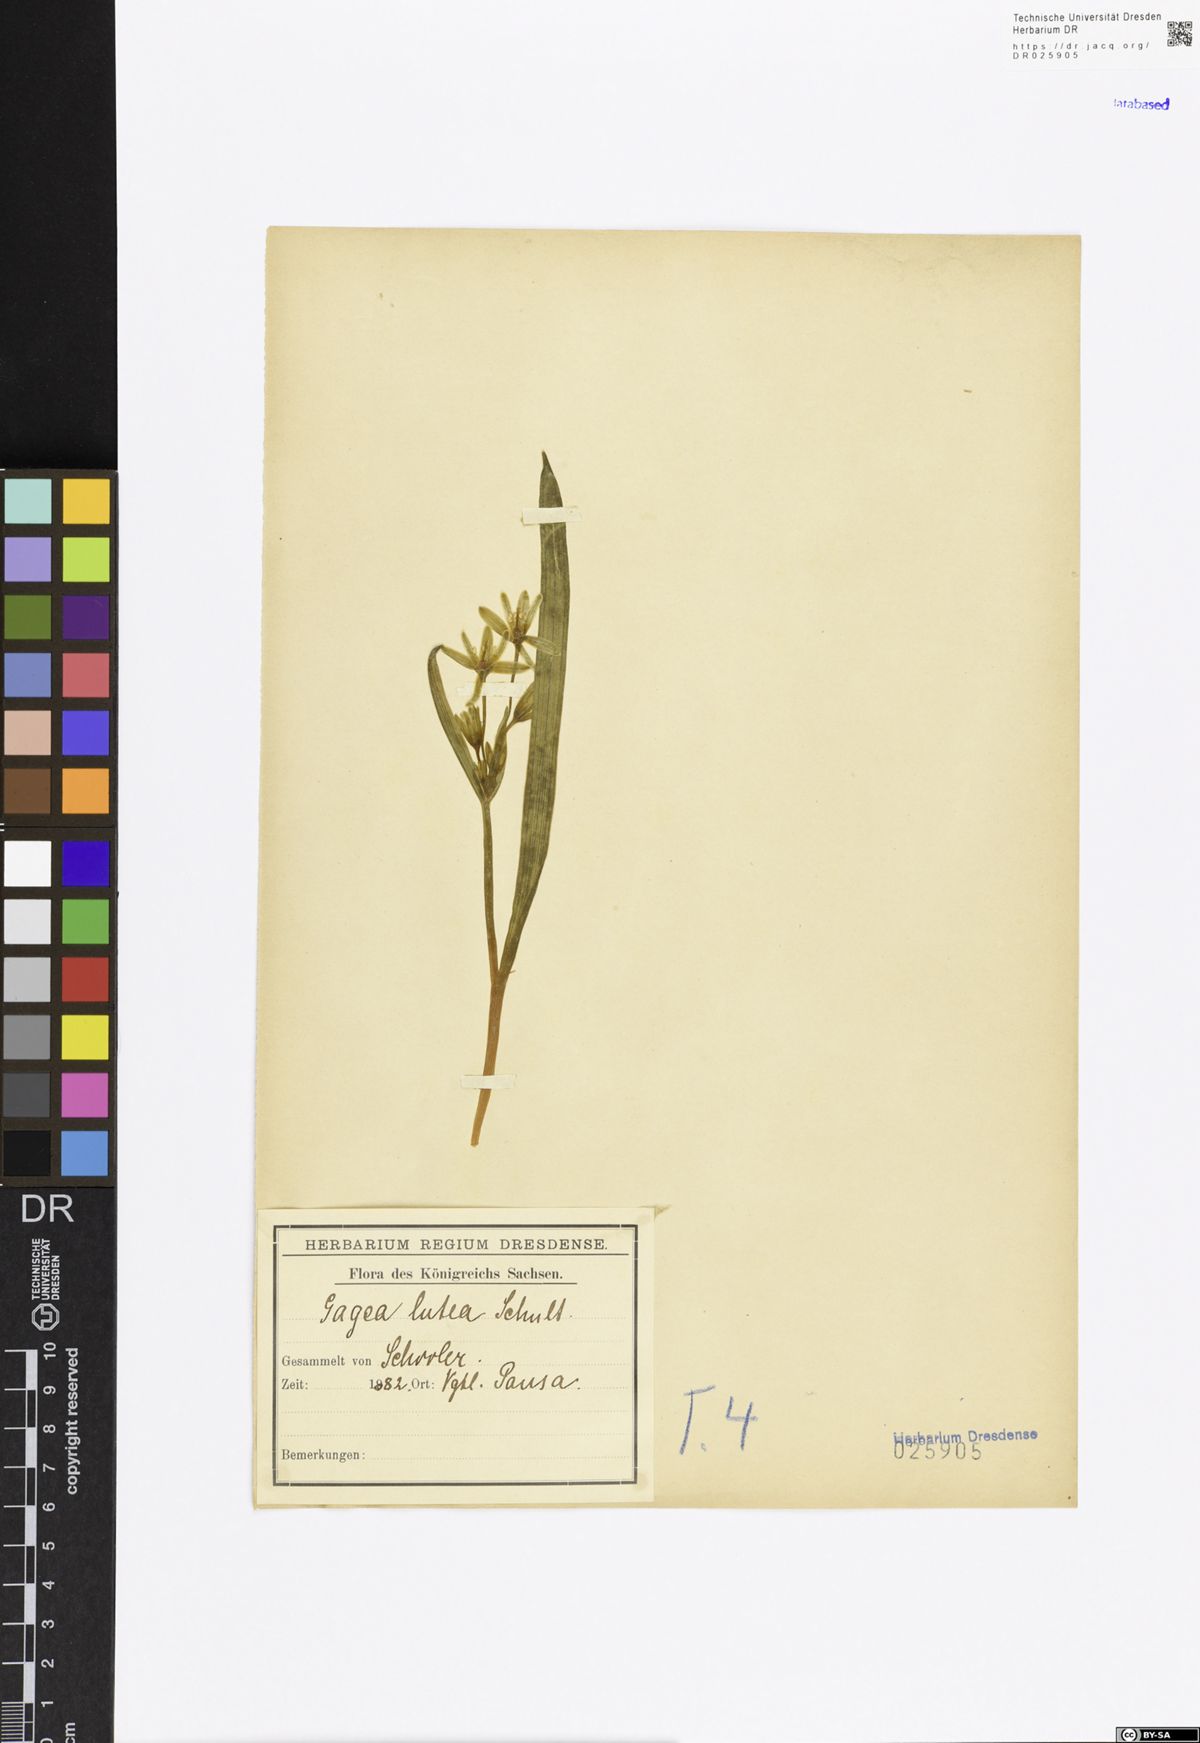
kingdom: Plantae
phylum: Tracheophyta
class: Liliopsida
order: Liliales
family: Liliaceae
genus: Gagea
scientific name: Gagea lutea
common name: Yellow star-of-bethlehem
